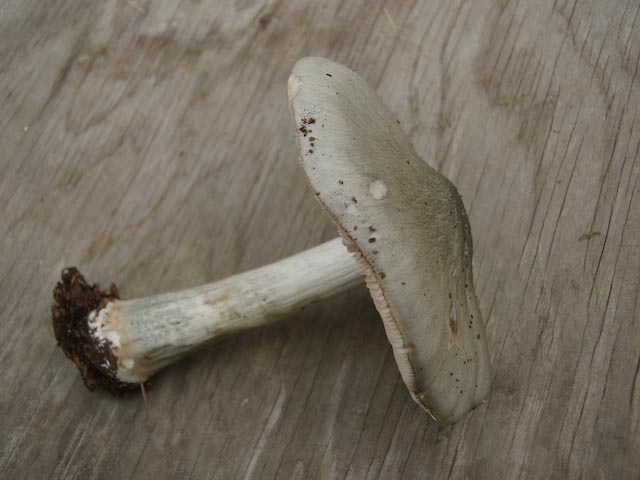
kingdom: Fungi
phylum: Basidiomycota
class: Agaricomycetes
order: Agaricales
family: Pluteaceae
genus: Pluteus
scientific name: Pluteus salicinus
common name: stiv skærmhat
